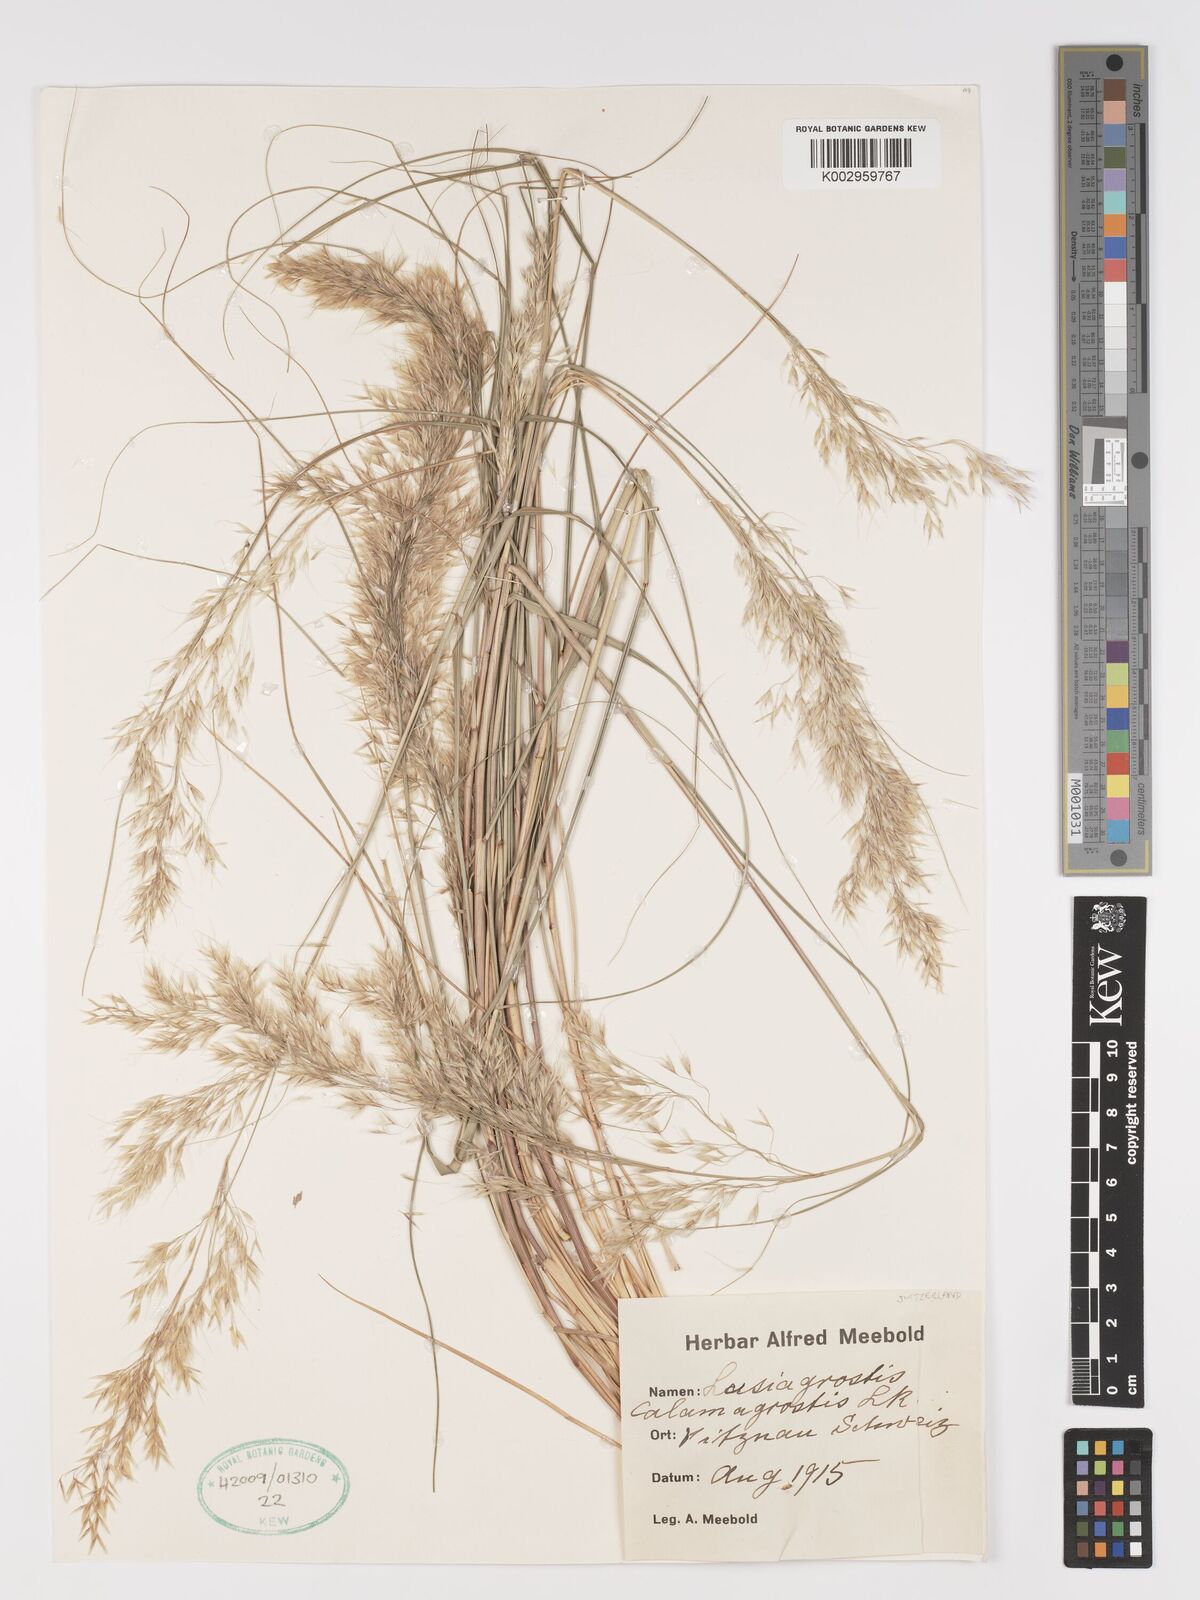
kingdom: Plantae
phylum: Tracheophyta
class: Liliopsida
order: Poales
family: Poaceae
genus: Achnatherum
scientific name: Achnatherum calamagrostis
